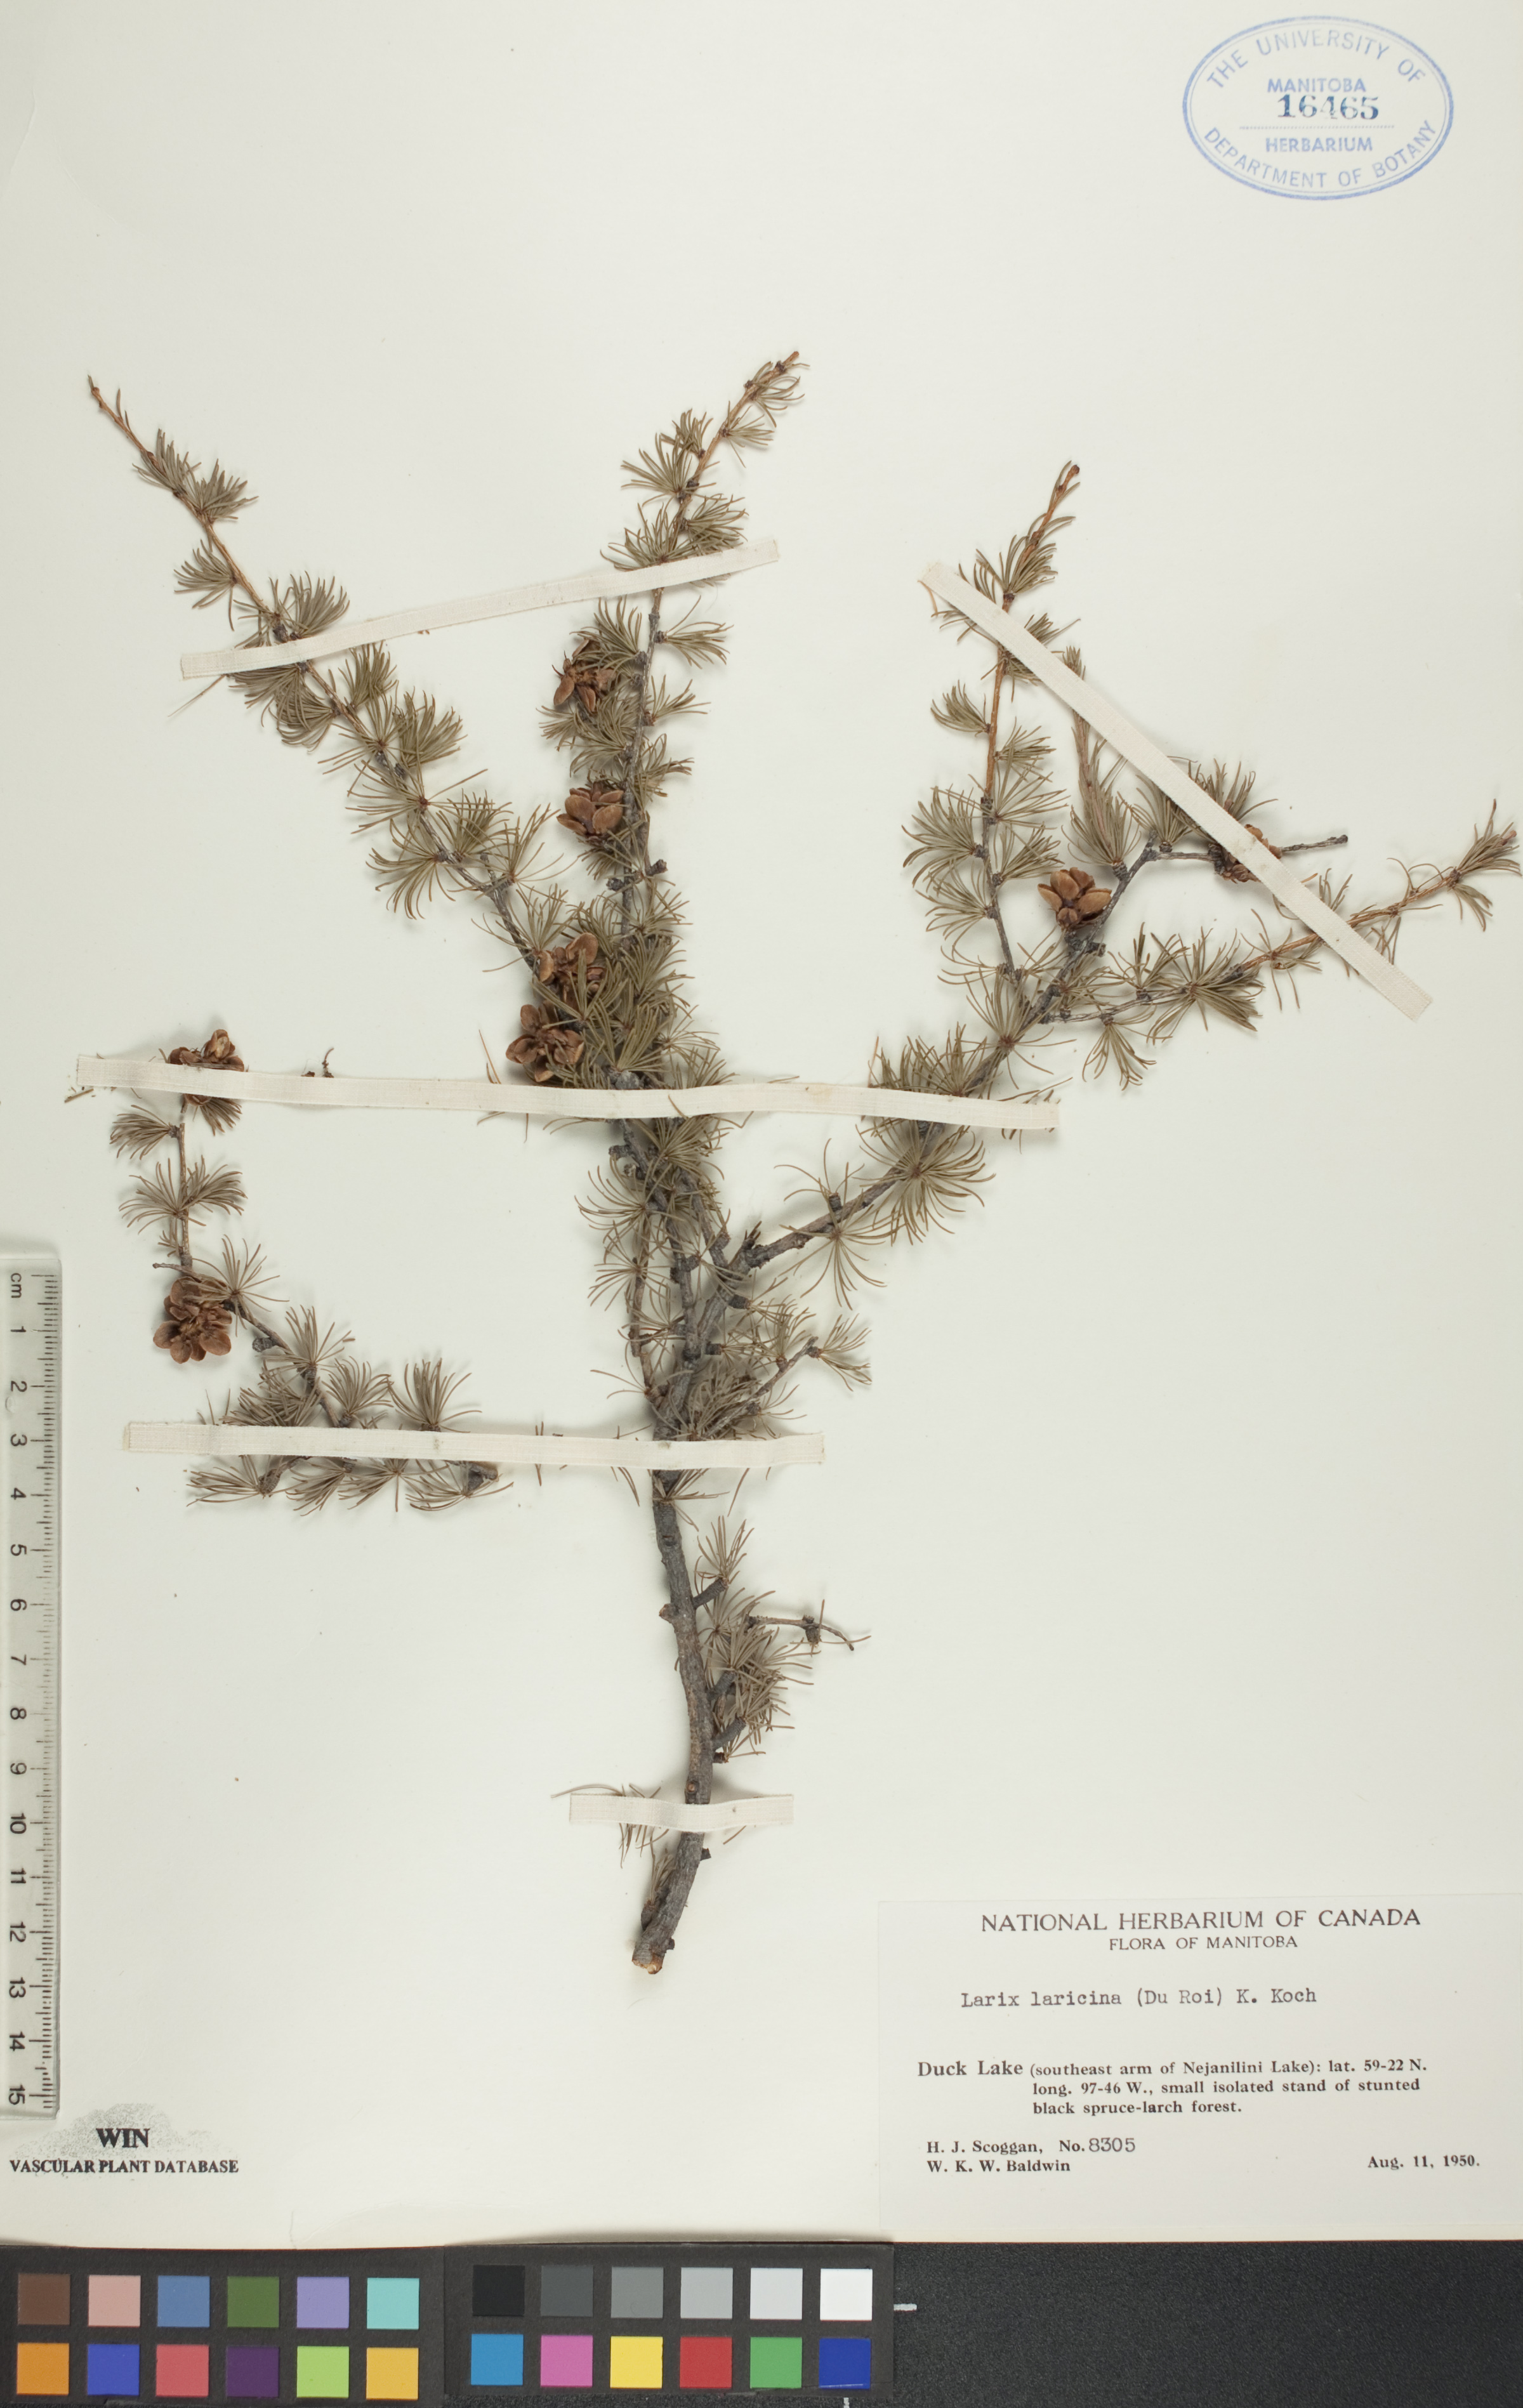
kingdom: Plantae
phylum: Tracheophyta
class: Pinopsida
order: Pinales
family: Pinaceae
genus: Larix
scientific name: Larix laricina
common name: American larch
